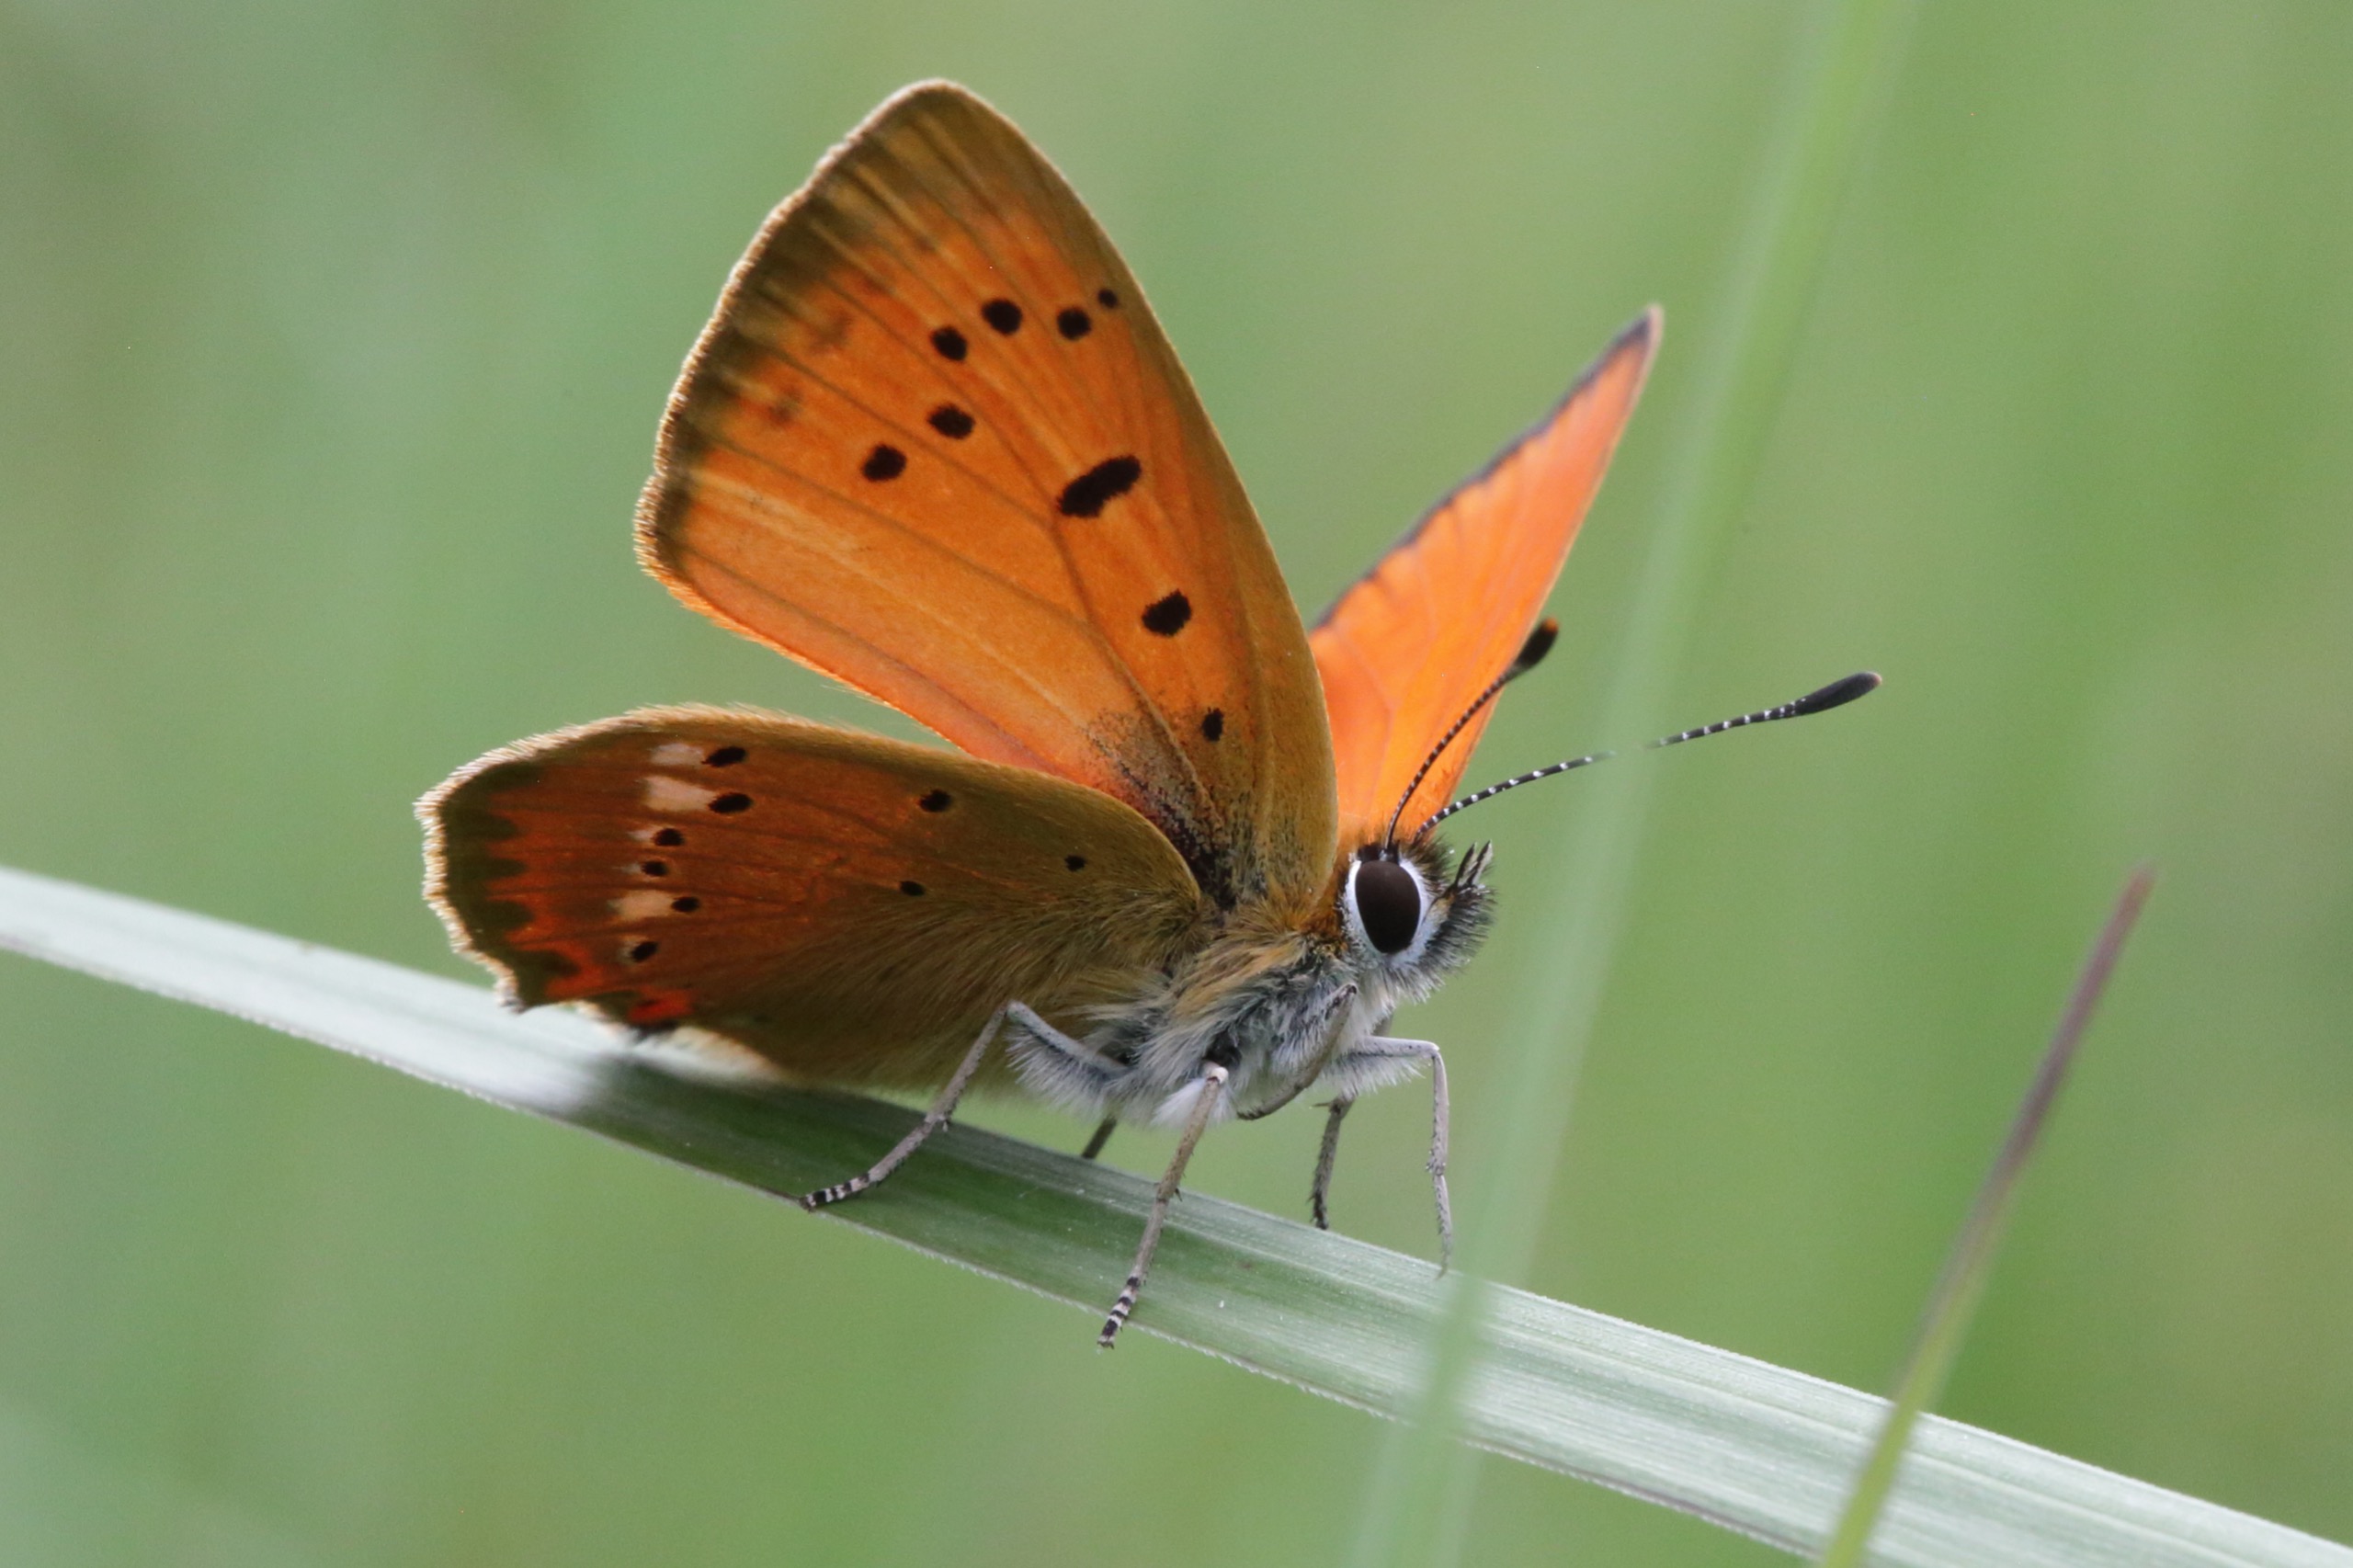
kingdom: Animalia
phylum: Arthropoda
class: Insecta
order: Lepidoptera
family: Lycaenidae
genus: Lycaena
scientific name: Lycaena virgaureae
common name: Dukatsommerfugl
